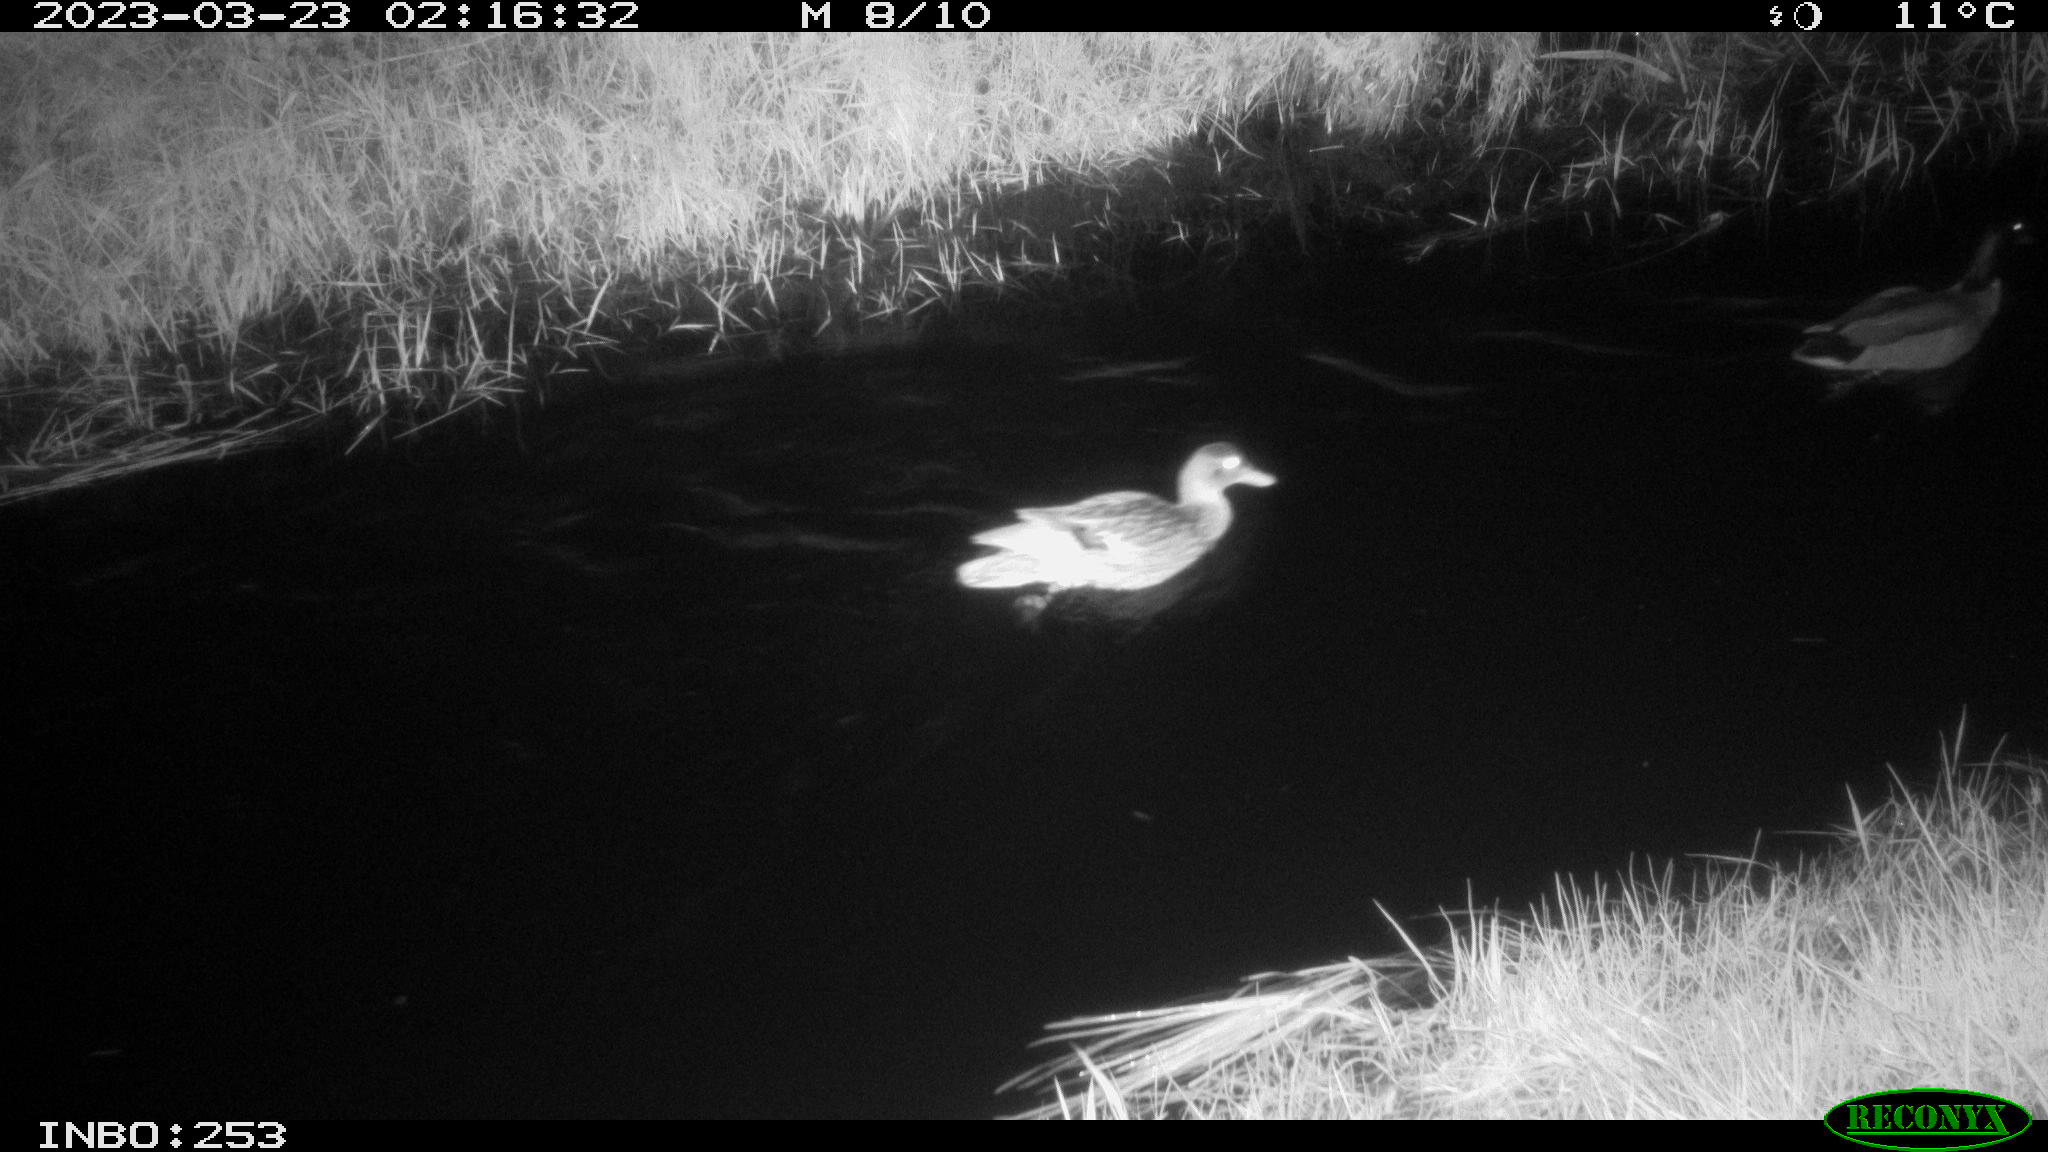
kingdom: Animalia
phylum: Chordata
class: Aves
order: Anseriformes
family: Anatidae
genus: Anas
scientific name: Anas
